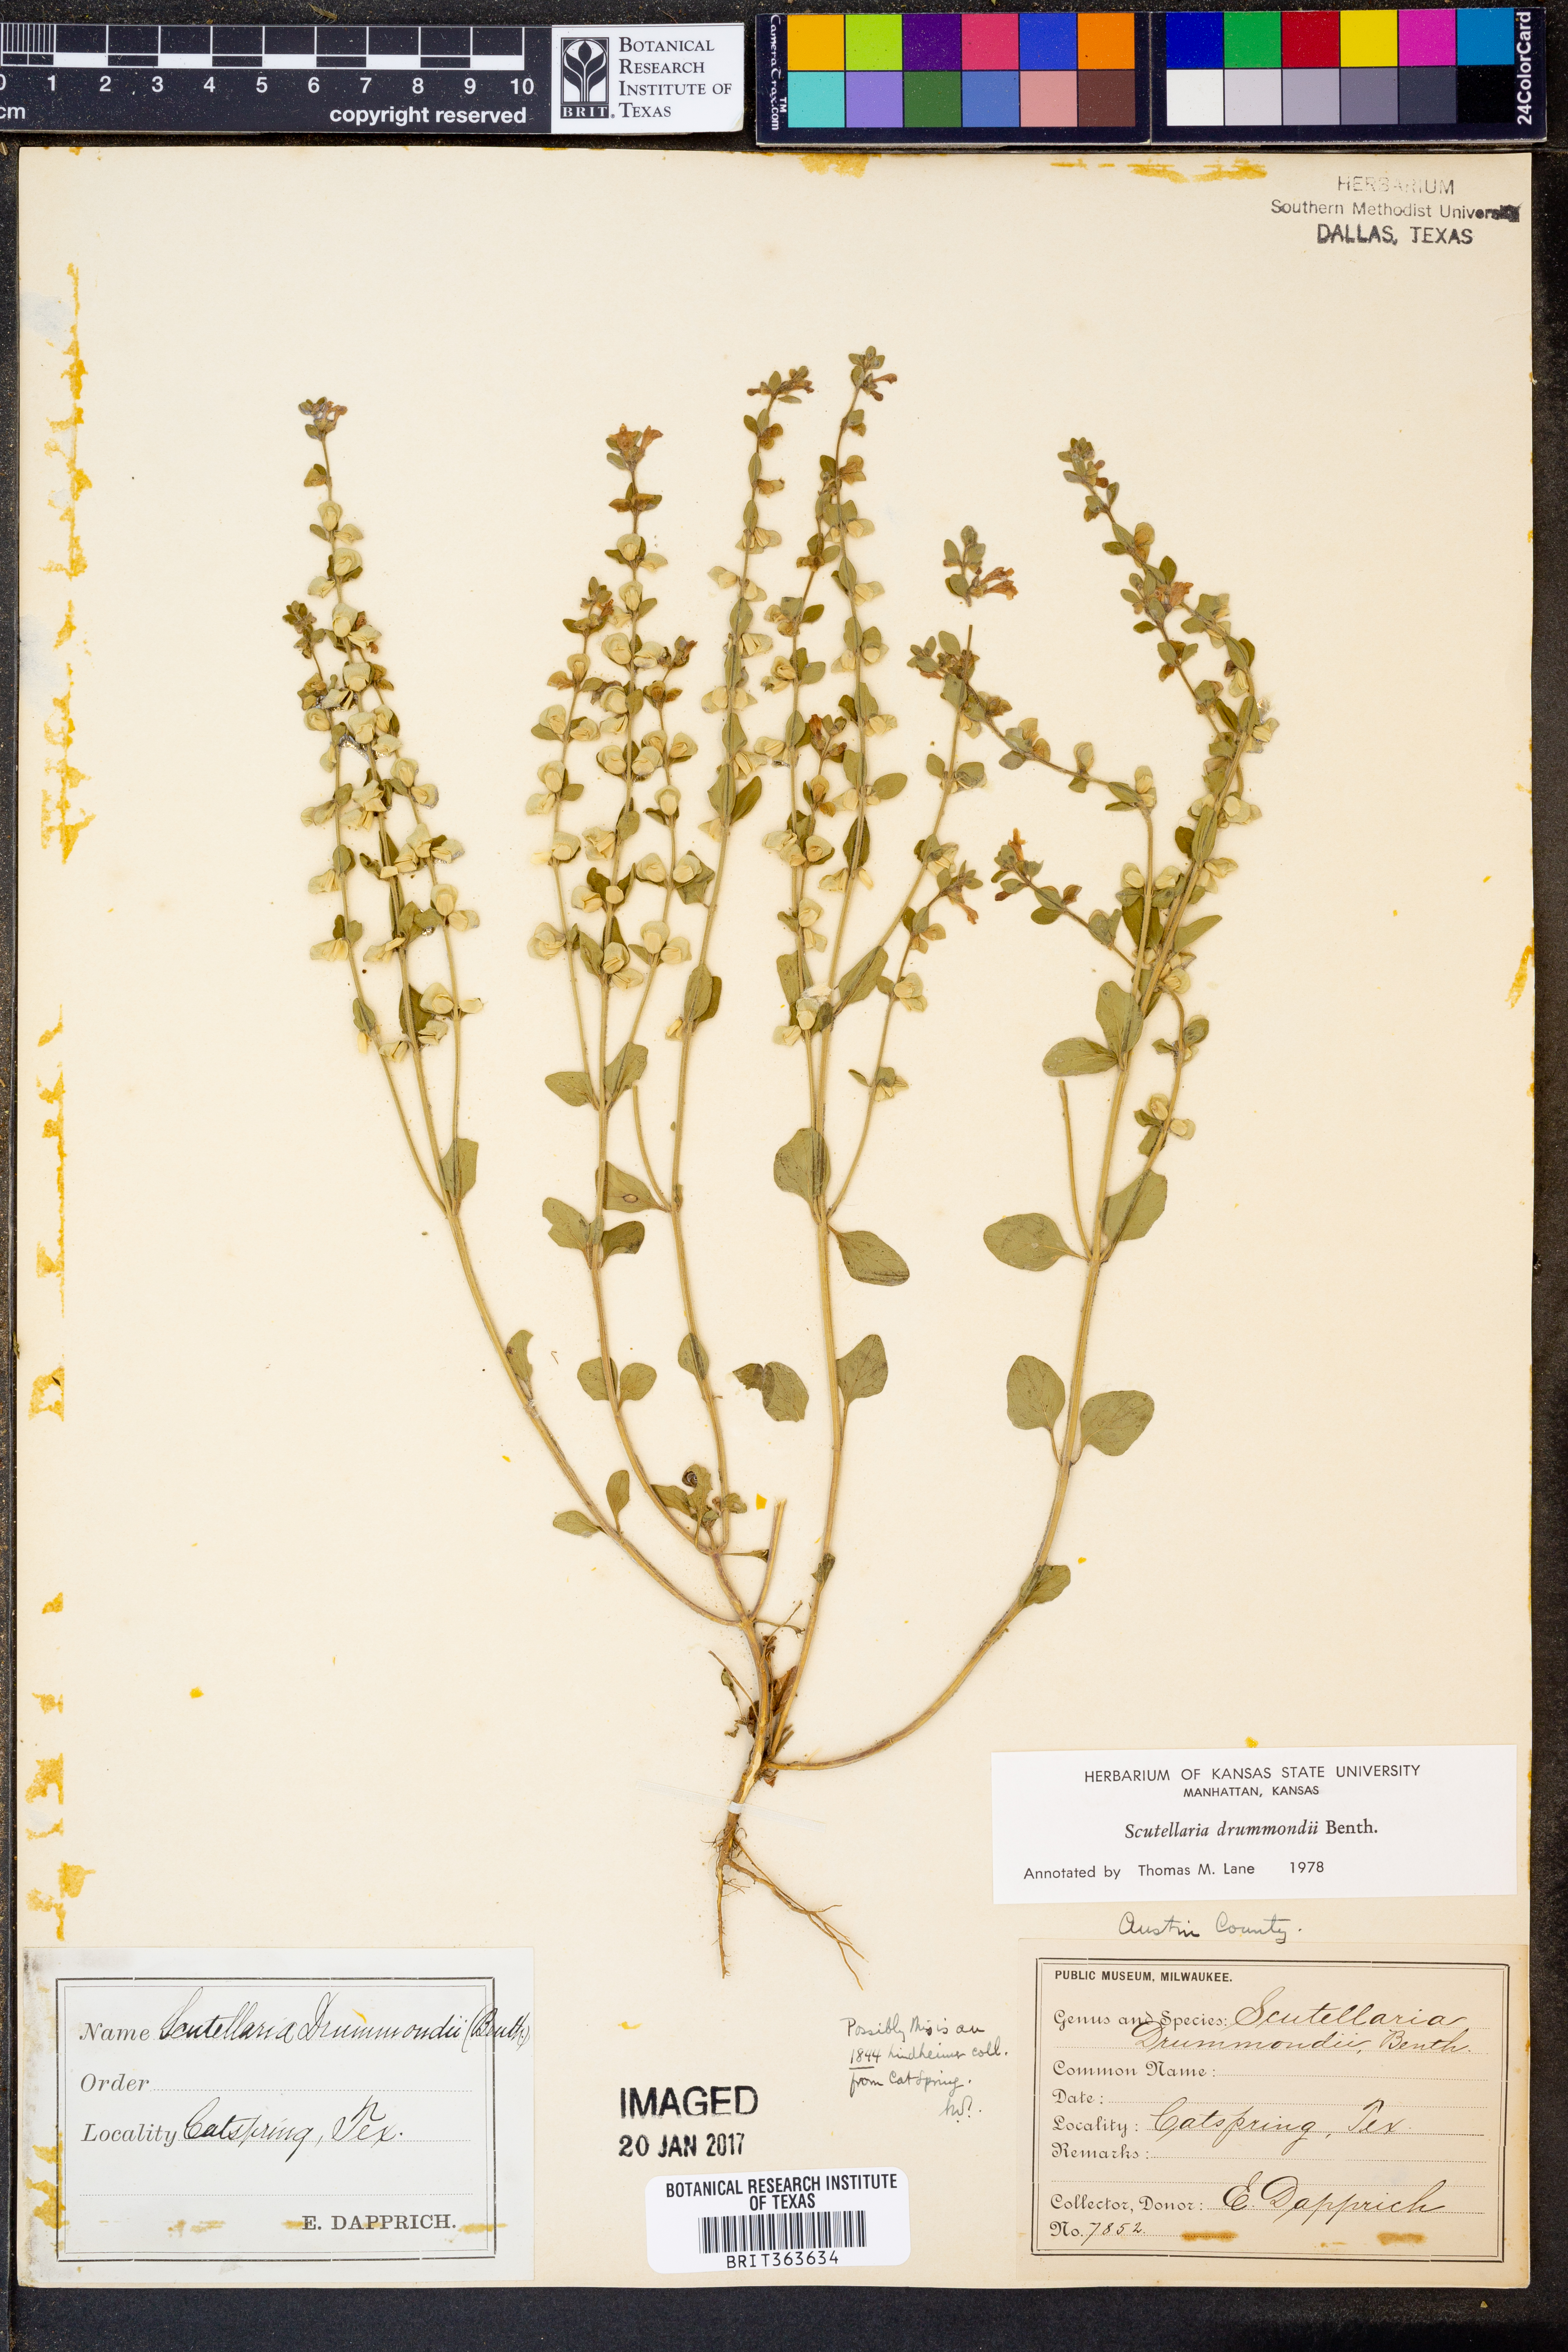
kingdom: Plantae
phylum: Tracheophyta
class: Magnoliopsida
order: Lamiales
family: Lamiaceae
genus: Scutellaria
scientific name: Scutellaria drummondii
